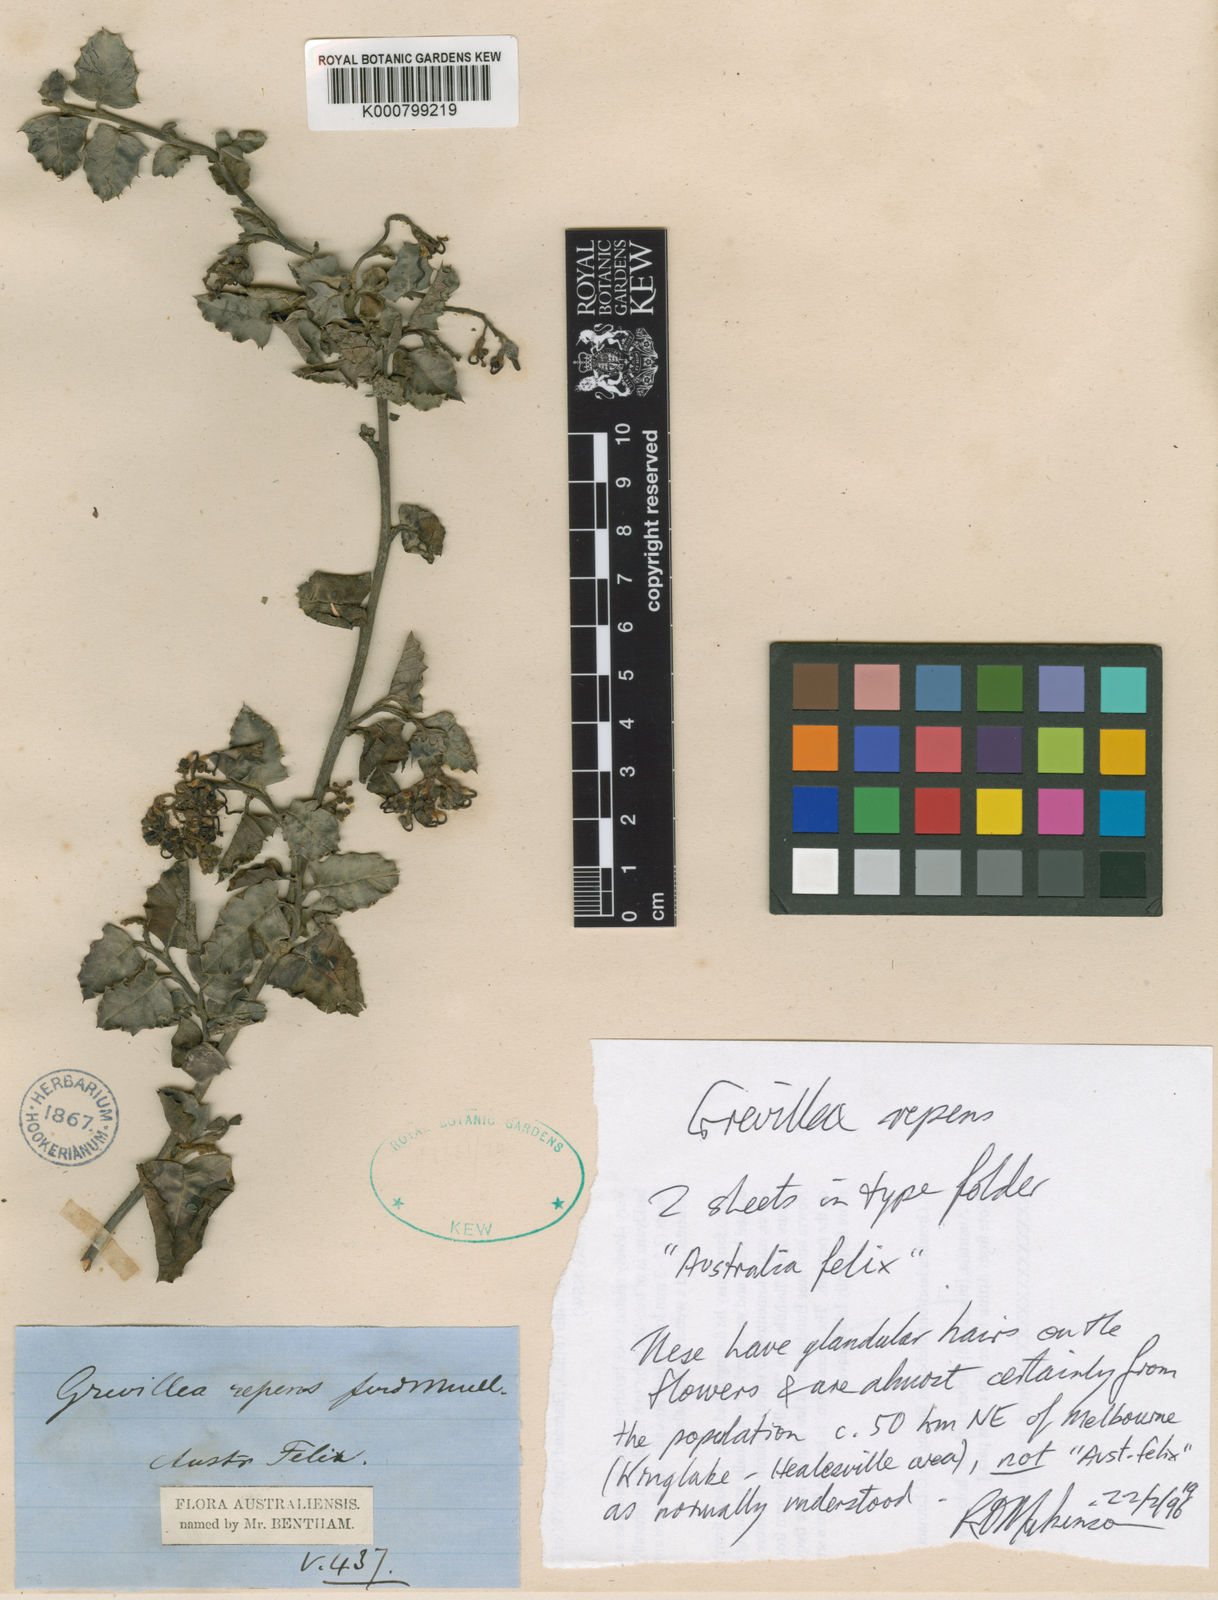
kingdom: Plantae
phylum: Tracheophyta
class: Magnoliopsida
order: Proteales
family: Proteaceae
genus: Grevillea
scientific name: Grevillea
